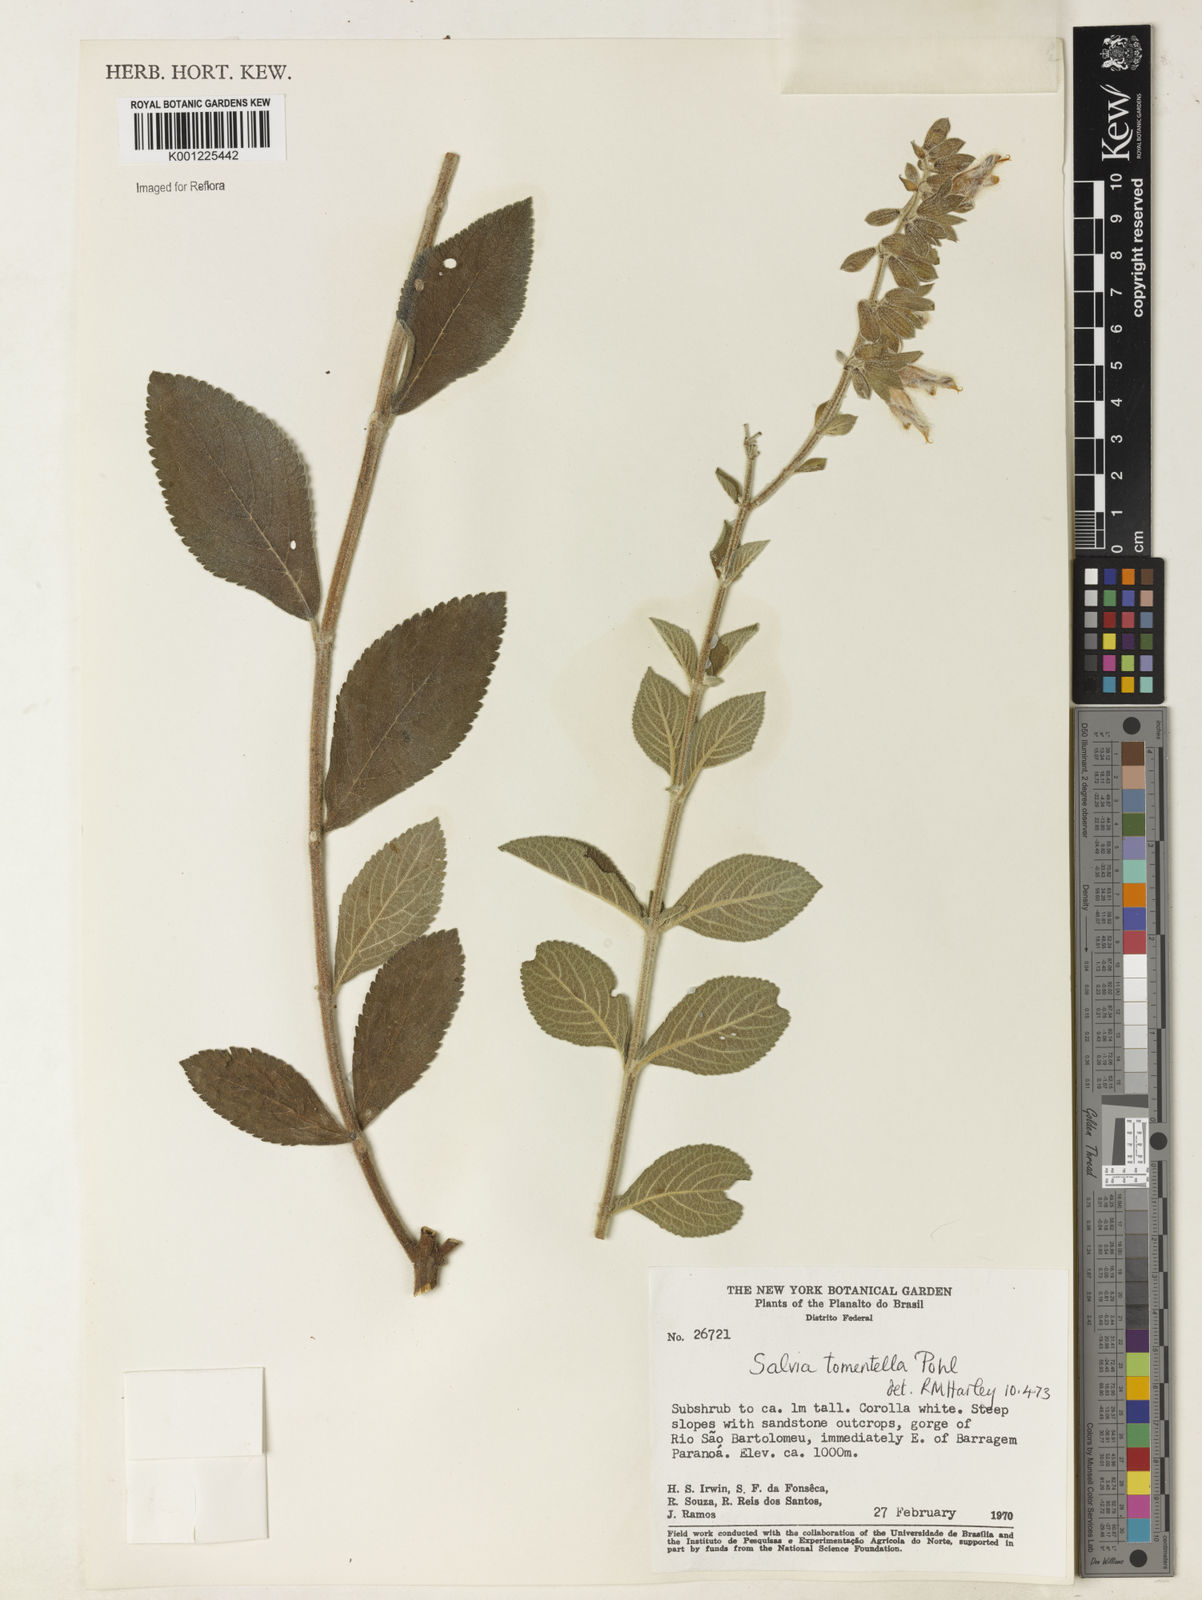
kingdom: Plantae
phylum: Tracheophyta
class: Magnoliopsida
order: Lamiales
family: Lamiaceae
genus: Salvia
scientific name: Salvia tomentella
